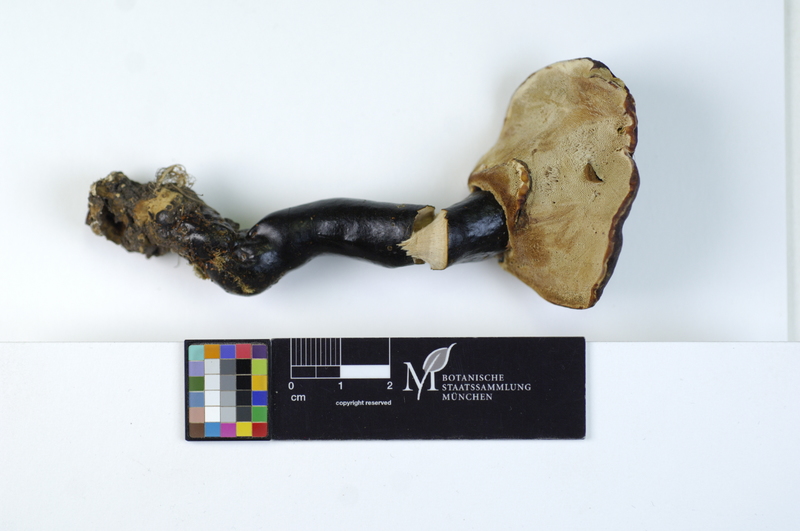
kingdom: Fungi
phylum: Basidiomycota
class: Agaricomycetes
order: Polyporales
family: Polyporaceae
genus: Ganoderma
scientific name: Ganoderma lucidum
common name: Lacquered bracket
